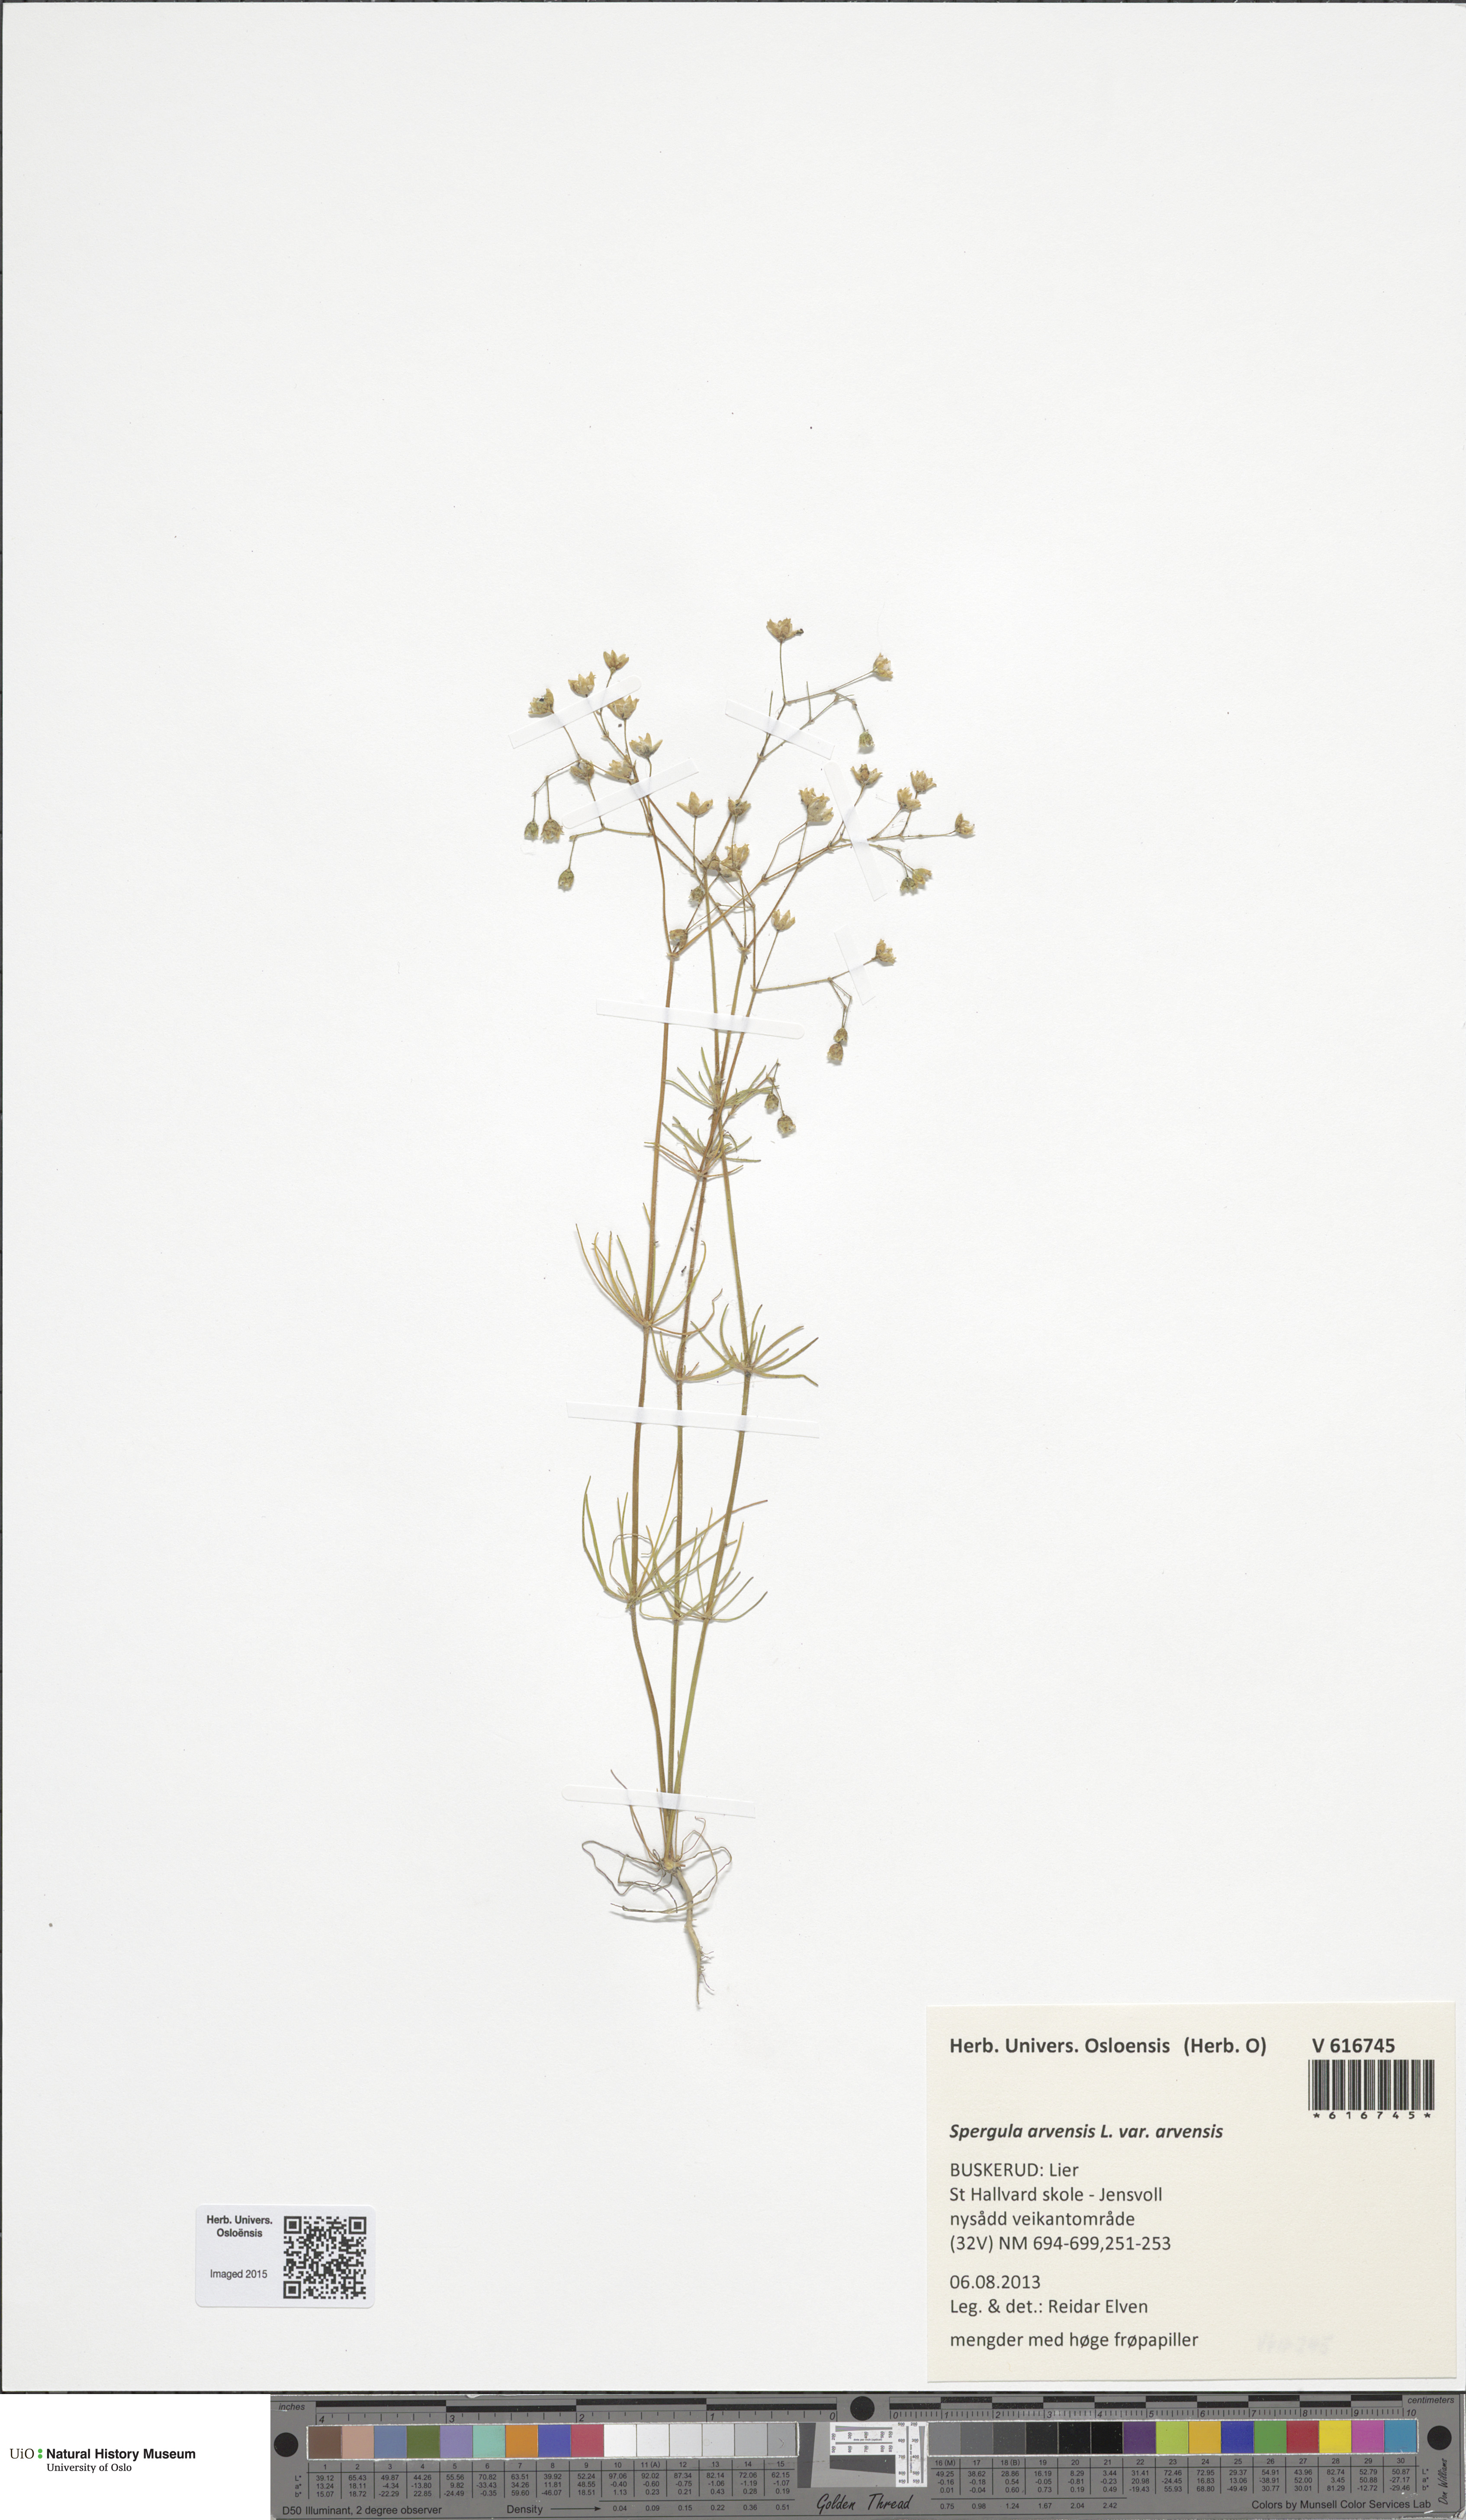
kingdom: Plantae
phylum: Tracheophyta
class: Magnoliopsida
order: Caryophyllales
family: Caryophyllaceae
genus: Spergula
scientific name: Spergula arvensis
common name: Corn spurrey
